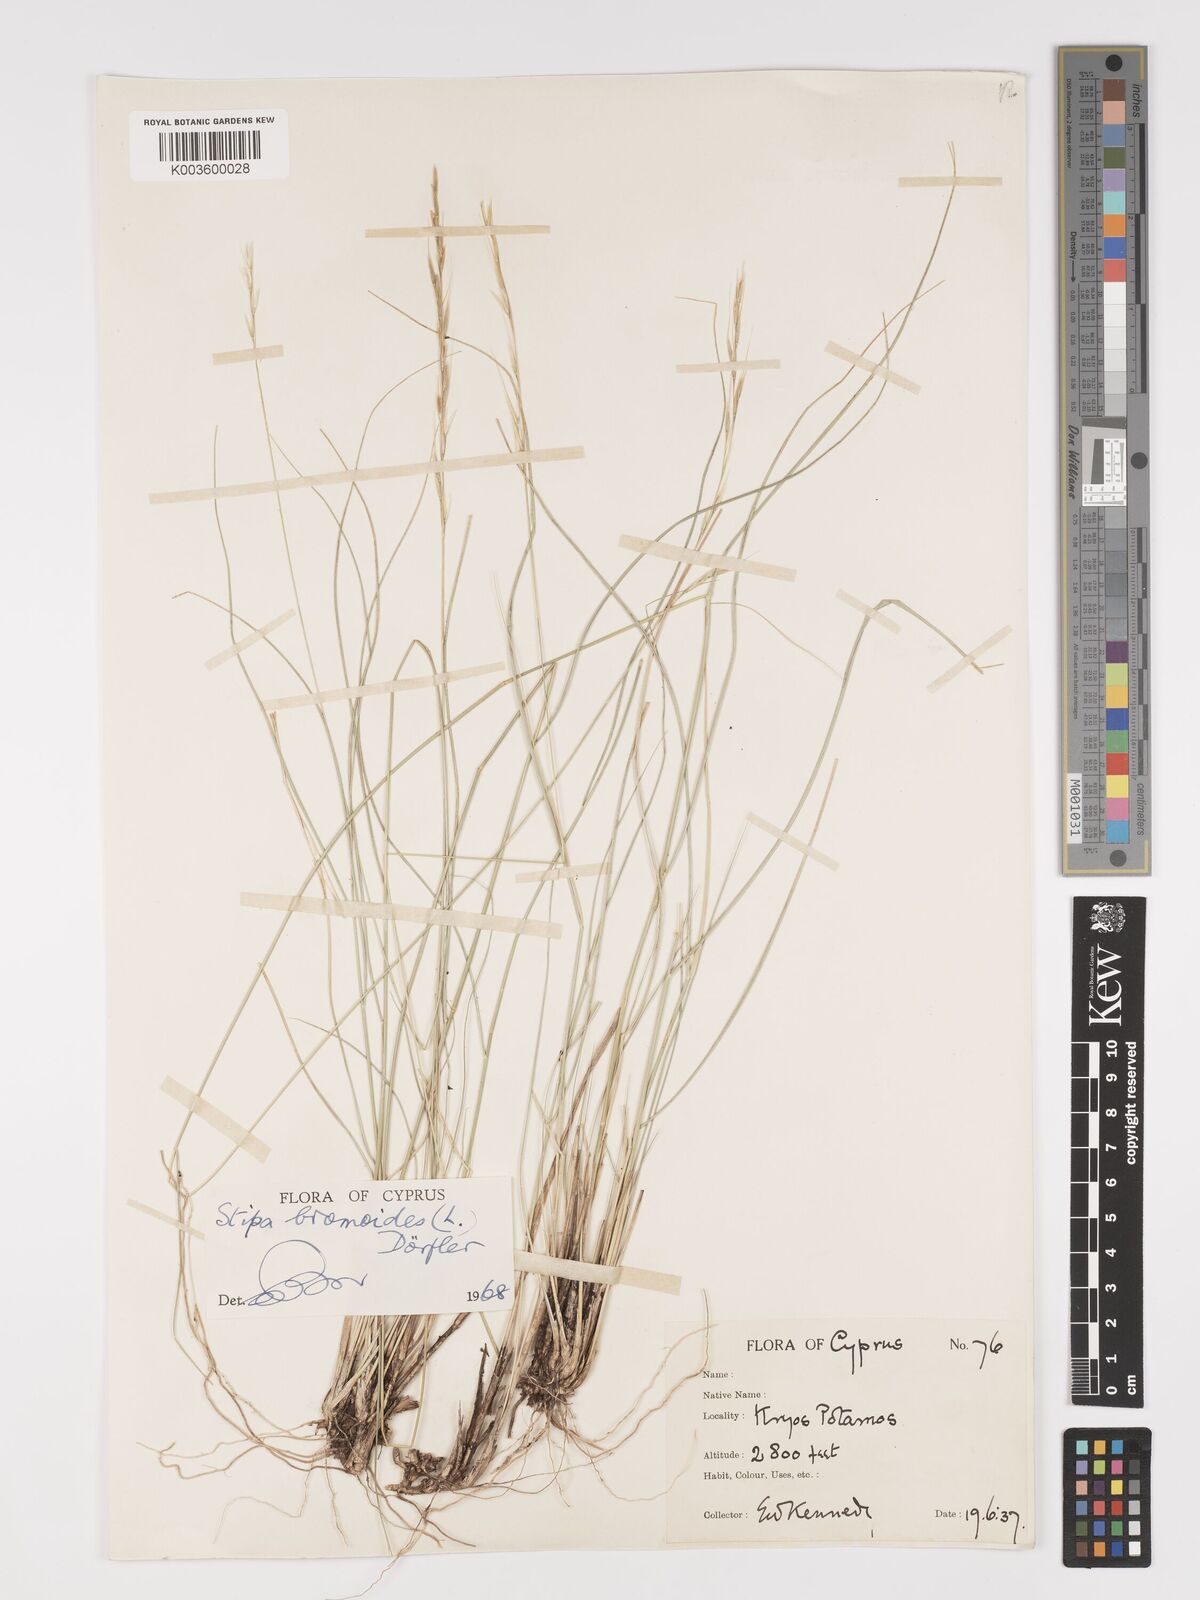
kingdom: Plantae
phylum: Tracheophyta
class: Liliopsida
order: Poales
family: Poaceae
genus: Achnatherum
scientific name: Achnatherum bromoides
